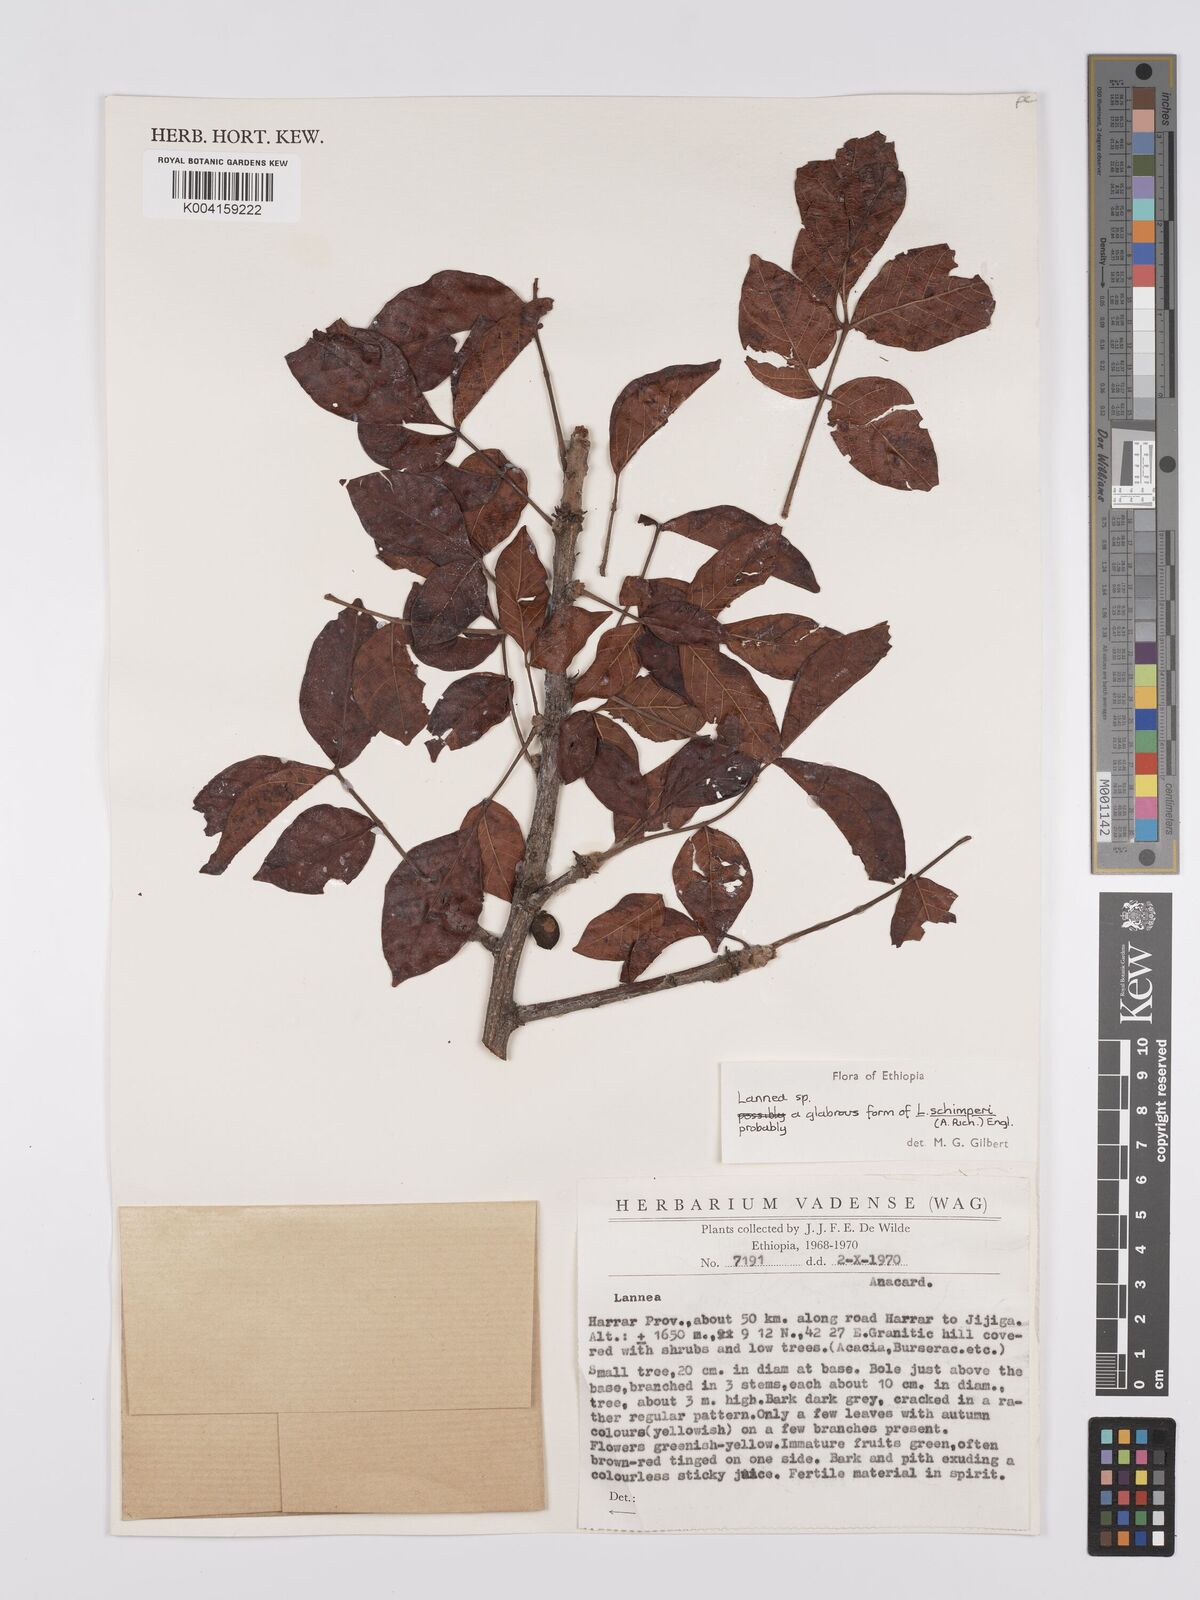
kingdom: Plantae
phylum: Tracheophyta
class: Magnoliopsida
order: Sapindales
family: Anacardiaceae
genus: Lannea
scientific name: Lannea schimperi
